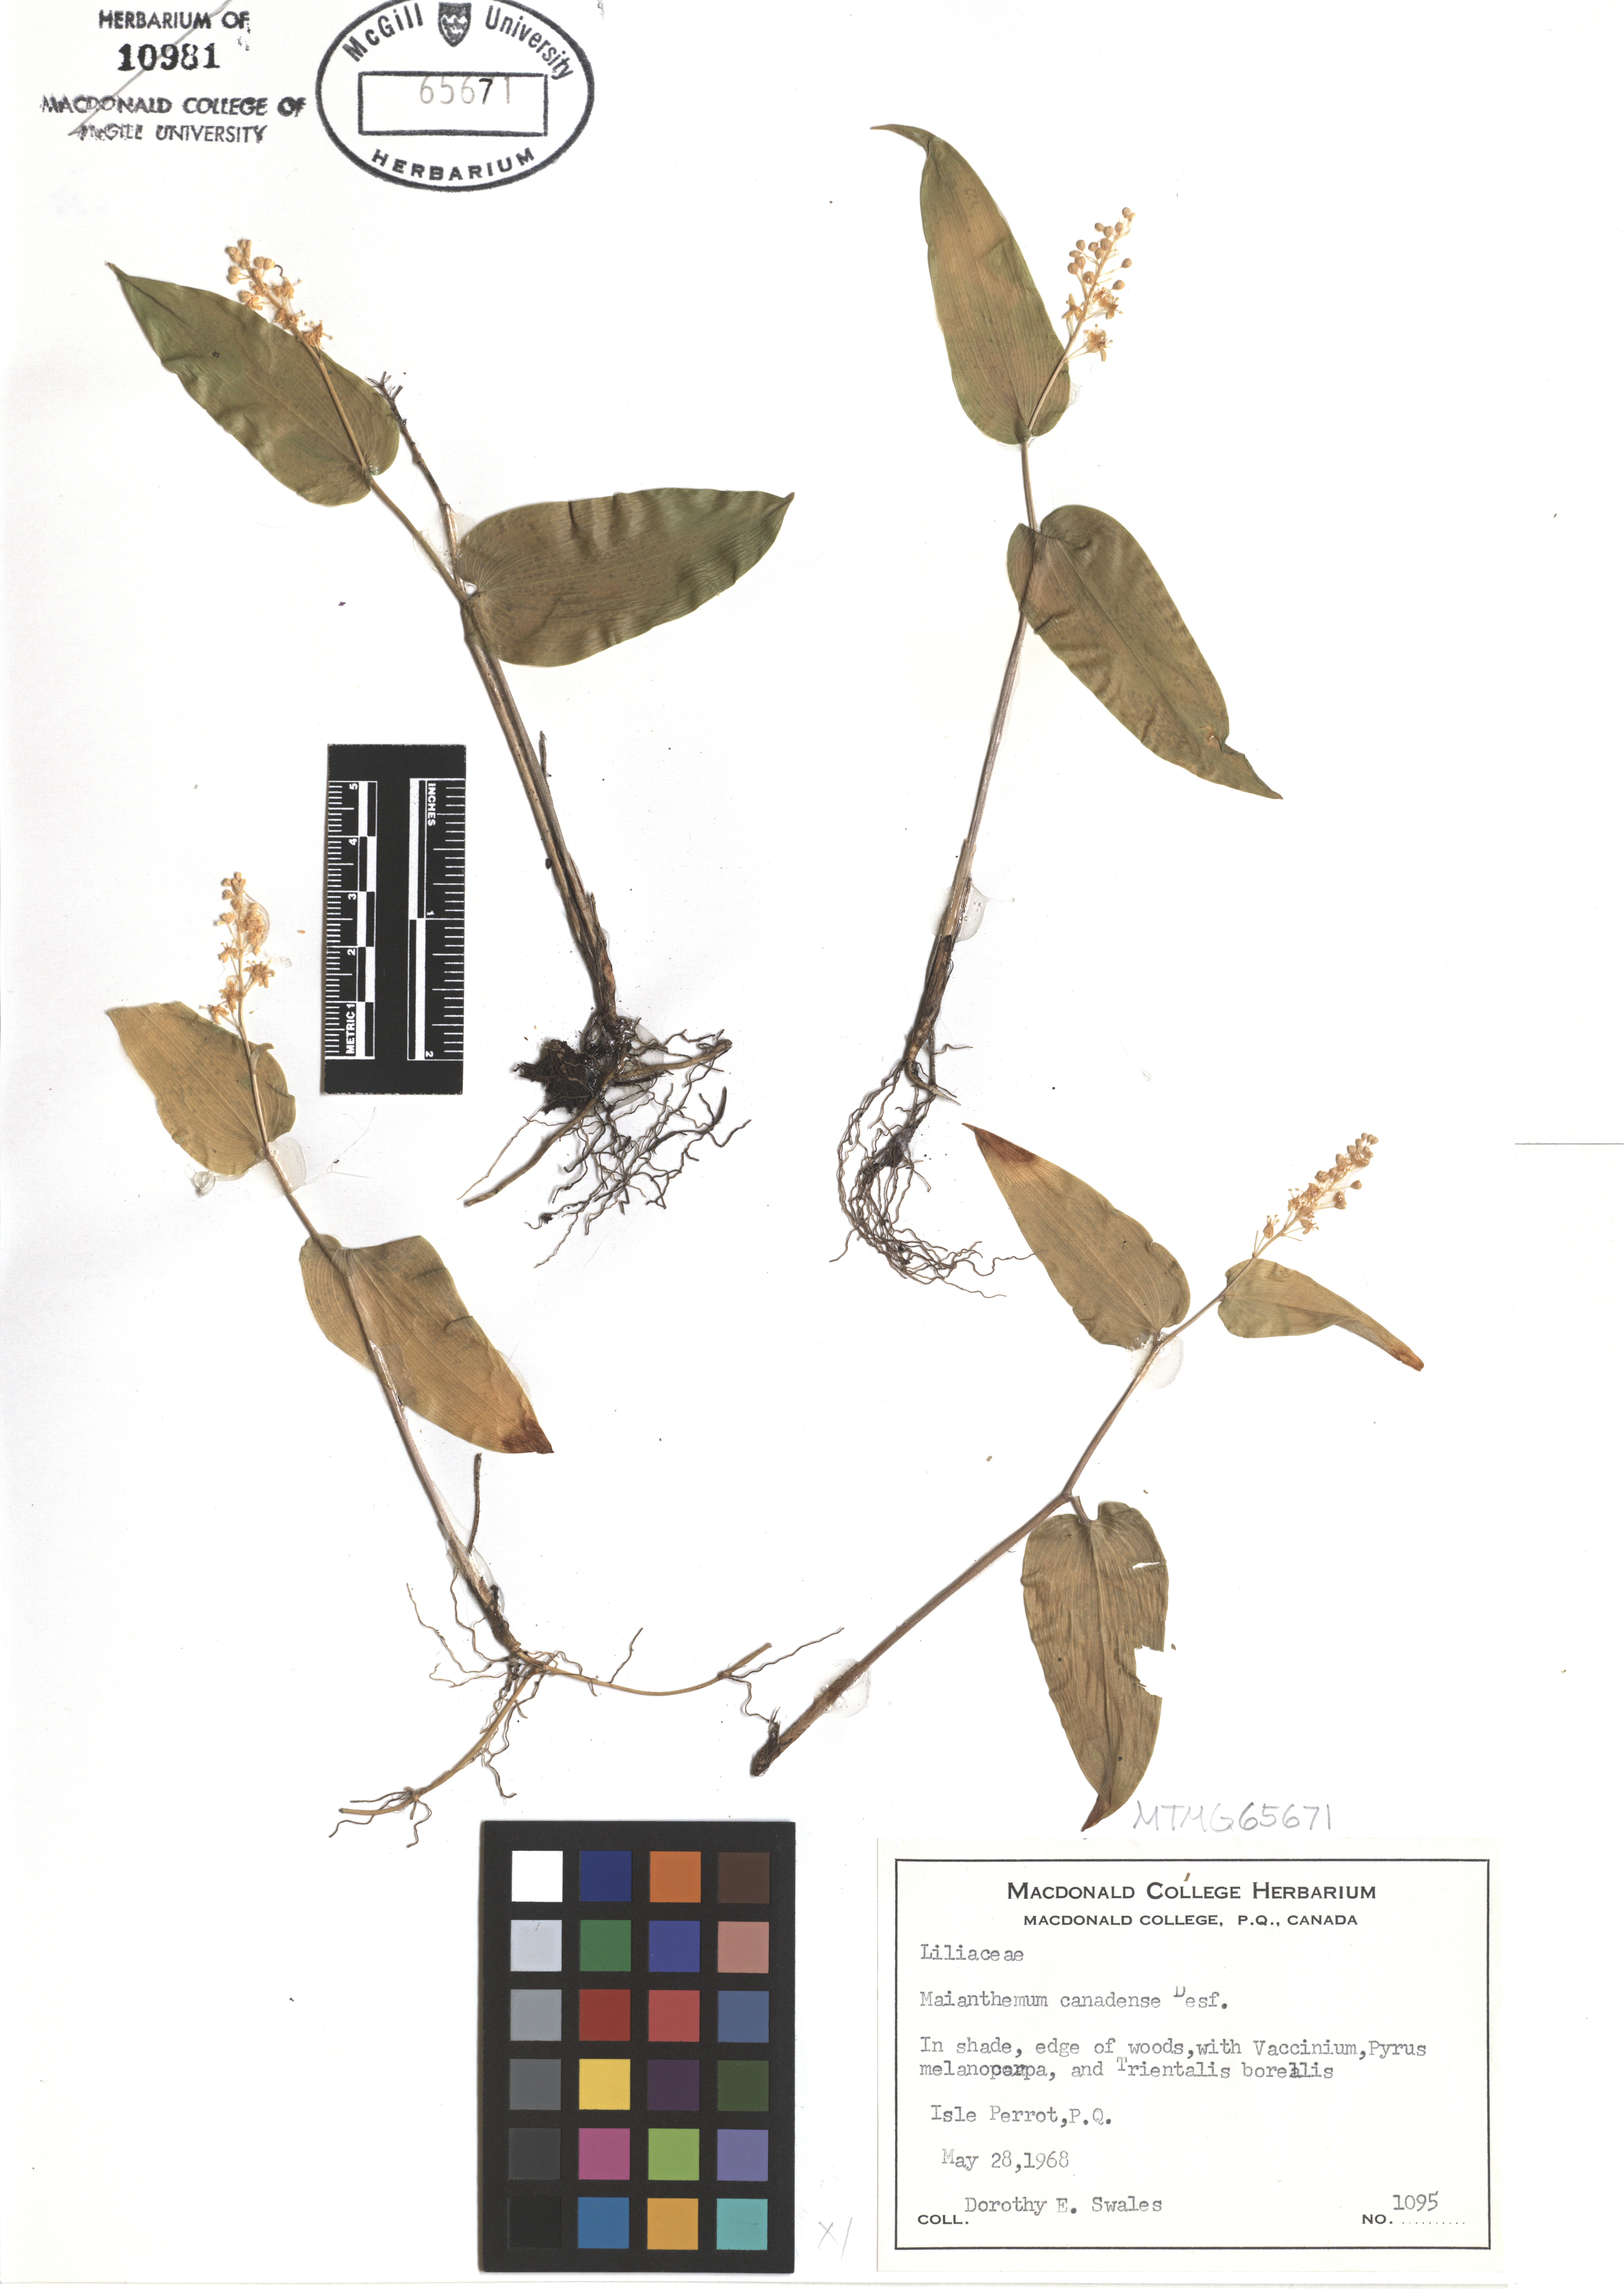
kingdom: Plantae
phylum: Tracheophyta
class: Liliopsida
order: Asparagales
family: Asparagaceae
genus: Maianthemum
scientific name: Maianthemum canadense
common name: False lily-of-the-valley
